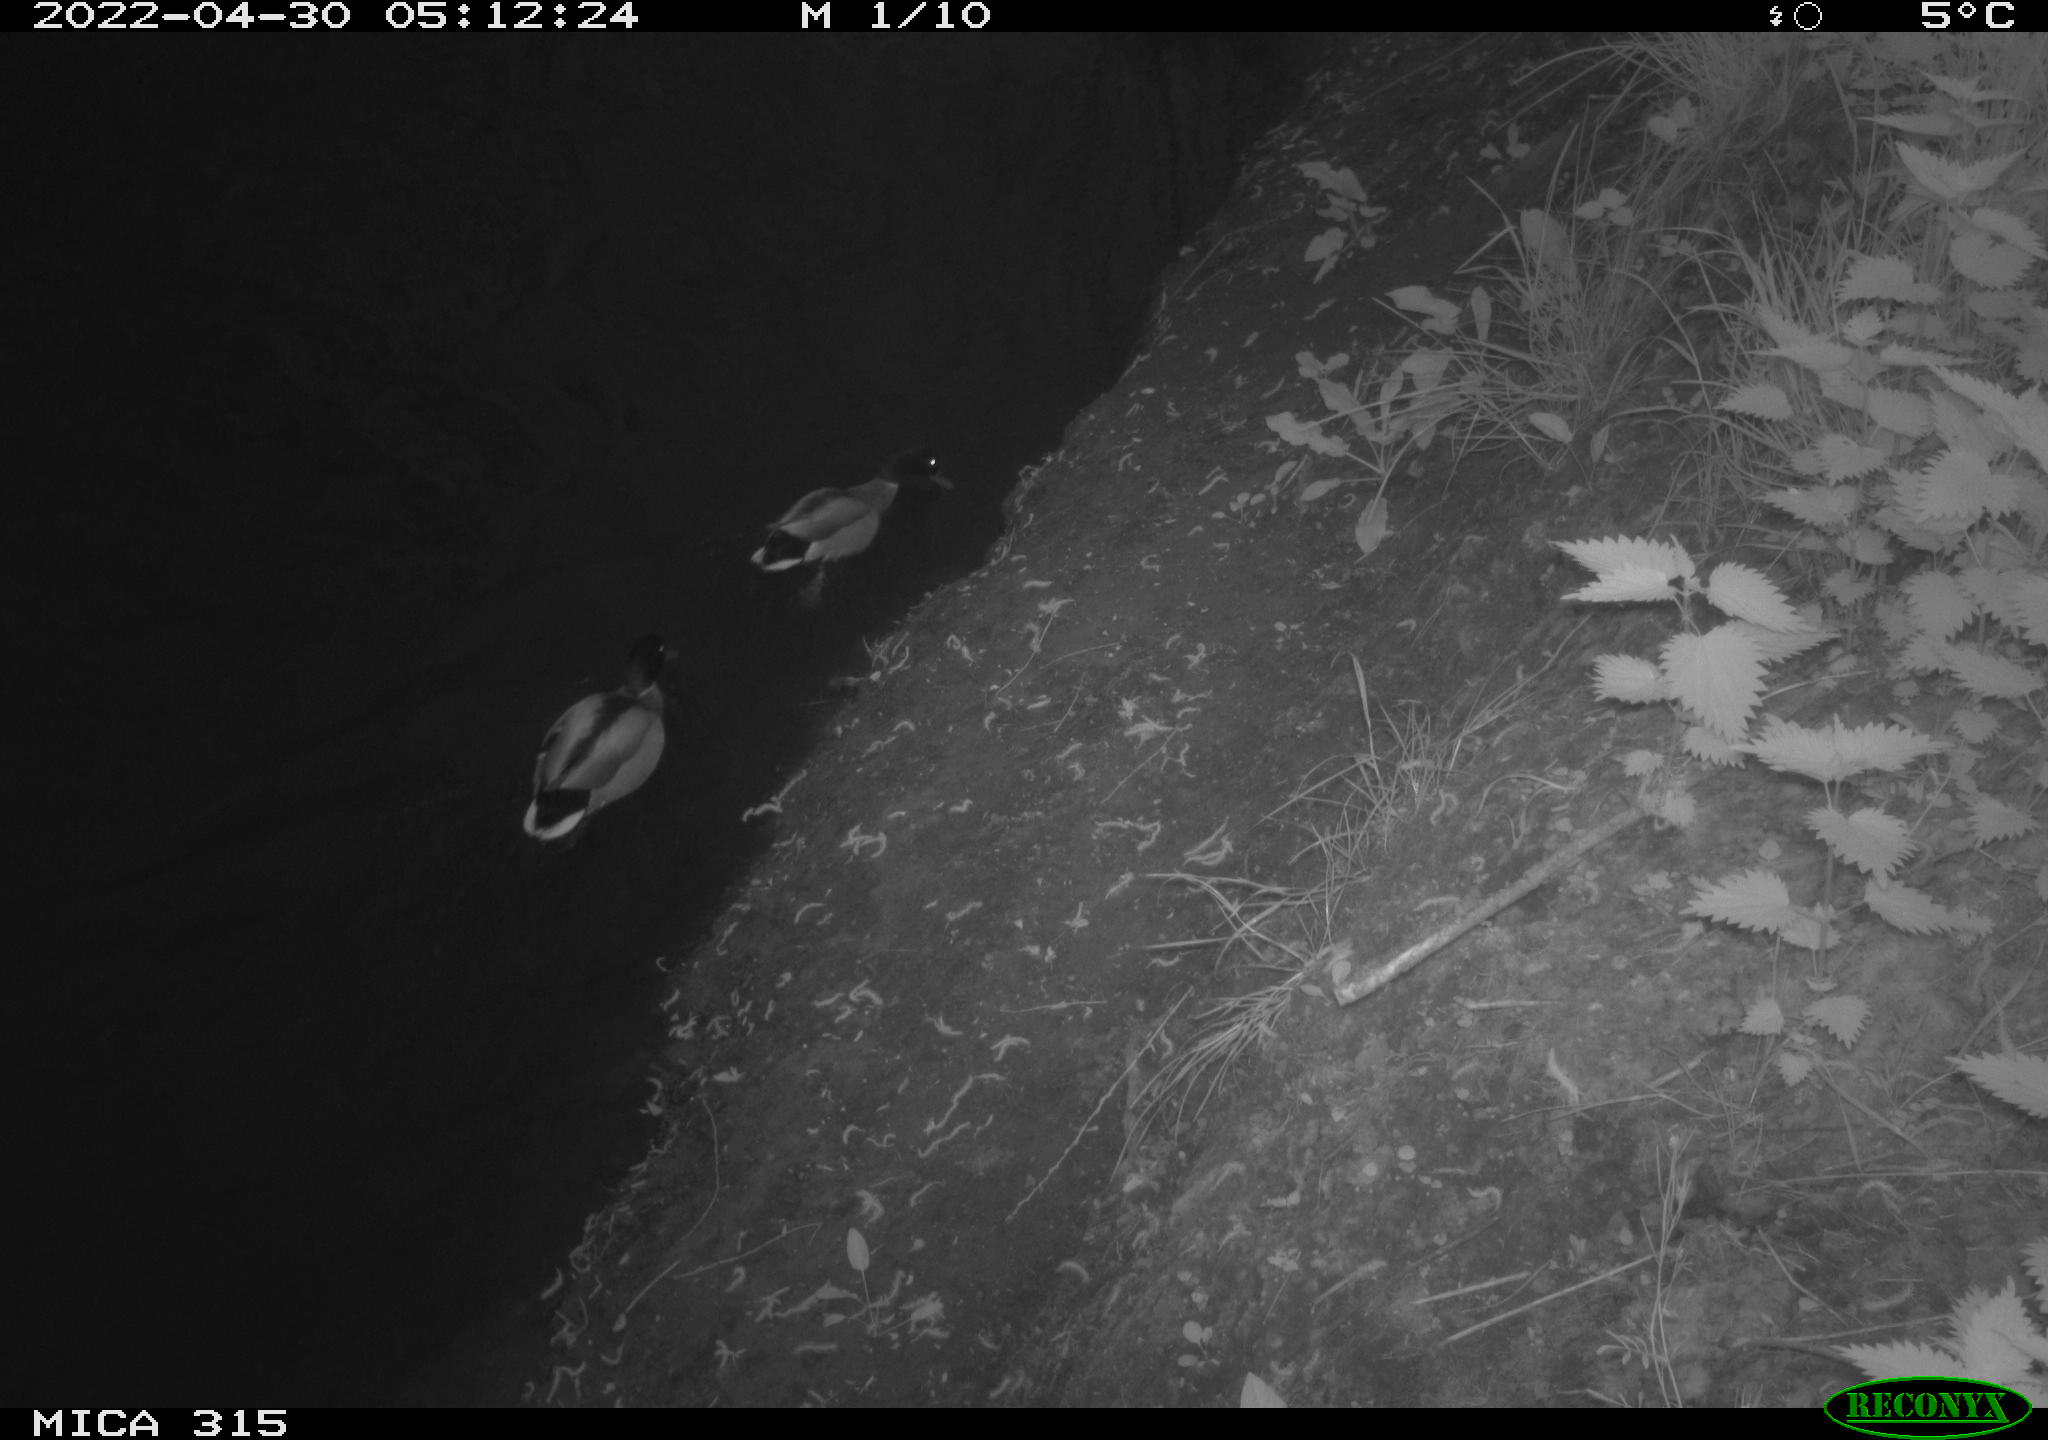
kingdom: Animalia
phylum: Chordata
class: Aves
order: Anseriformes
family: Anatidae
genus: Anas
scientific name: Anas platyrhynchos
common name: Mallard
